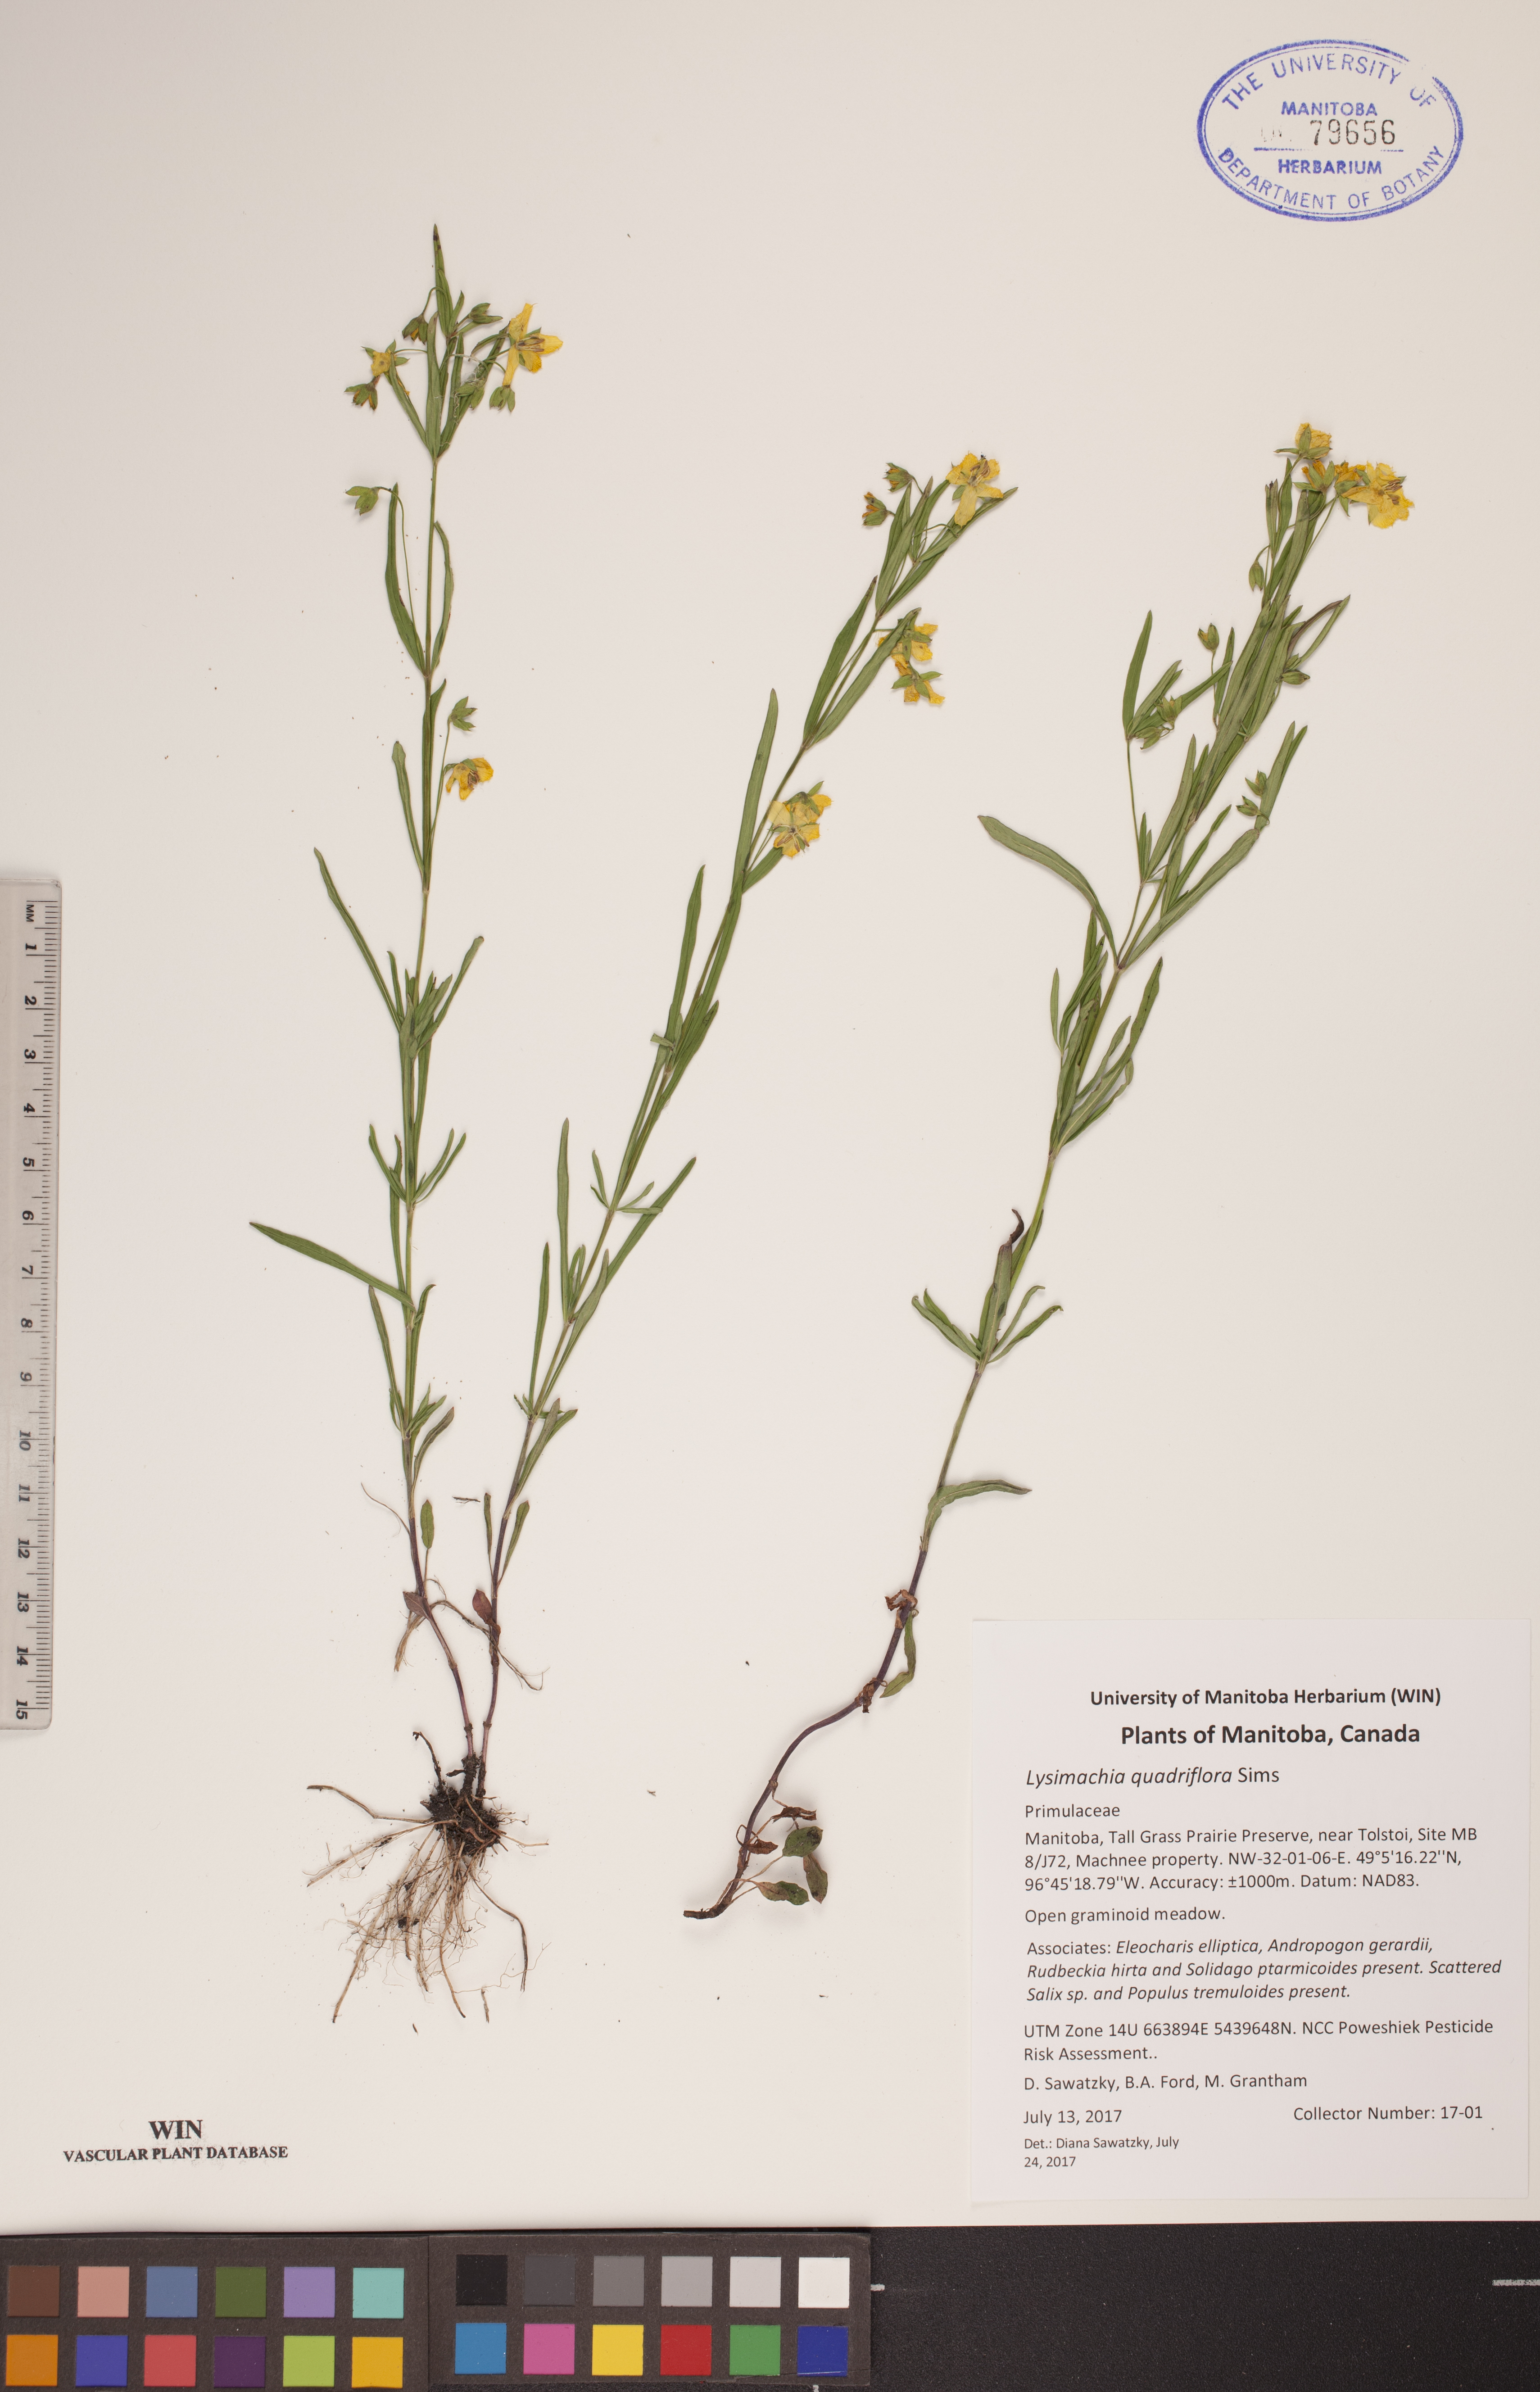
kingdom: Plantae
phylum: Tracheophyta
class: Magnoliopsida
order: Ericales
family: Primulaceae
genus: Lysimachia
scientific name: Lysimachia quadriflora
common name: Four-flowered loosestrife
